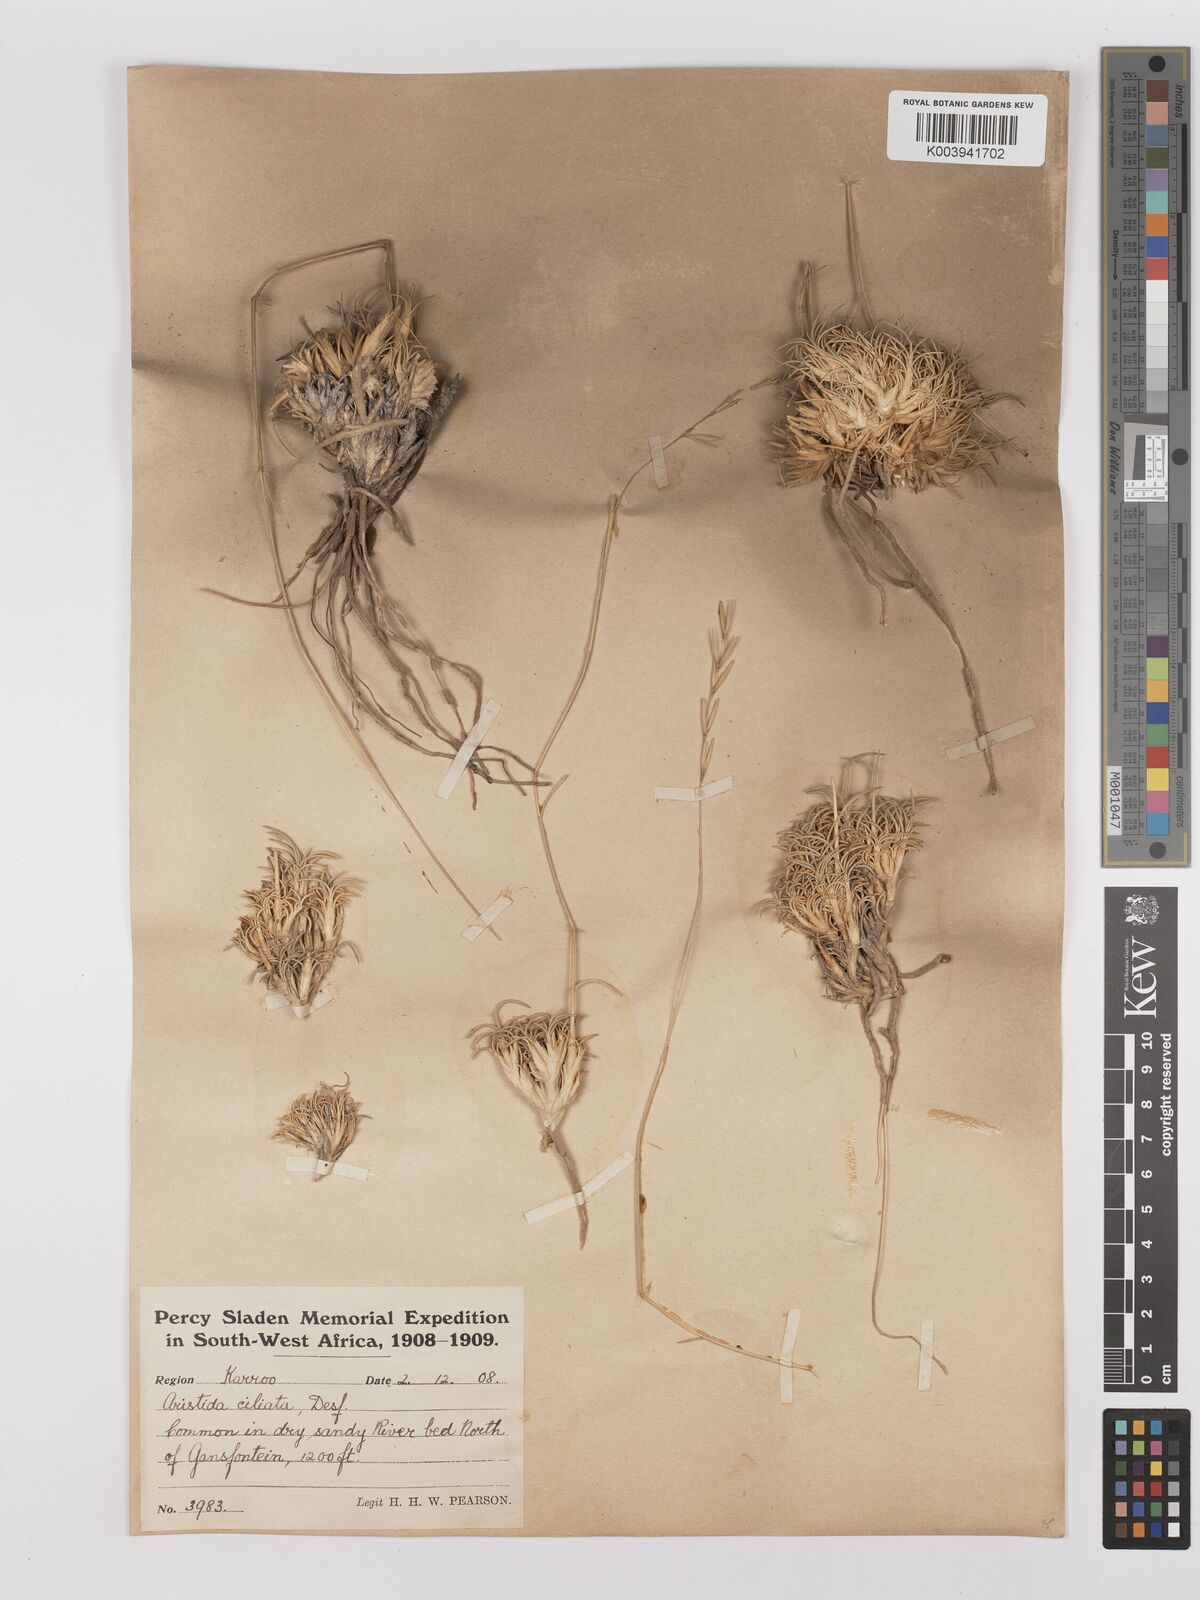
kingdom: Plantae
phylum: Tracheophyta
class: Liliopsida
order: Poales
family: Poaceae
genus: Stipagrostis
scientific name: Stipagrostis ciliata
